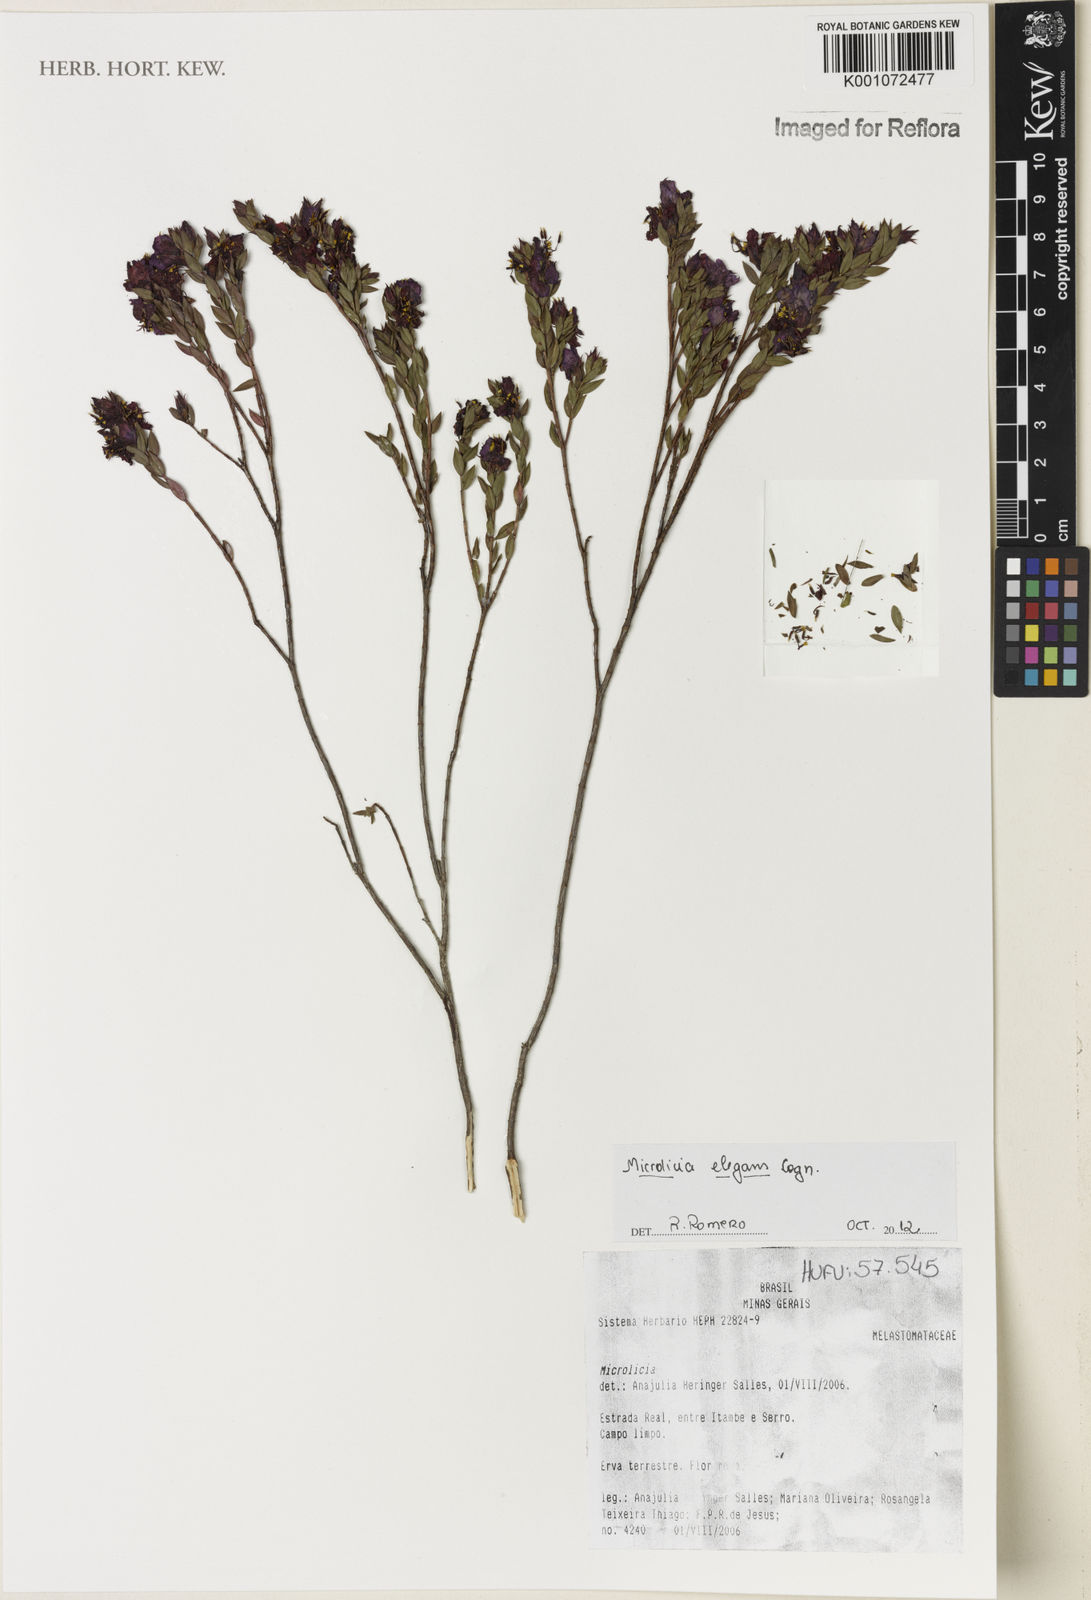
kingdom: Plantae
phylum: Tracheophyta
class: Magnoliopsida
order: Myrtales
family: Melastomataceae
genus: Microlicia
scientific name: Microlicia elegans
